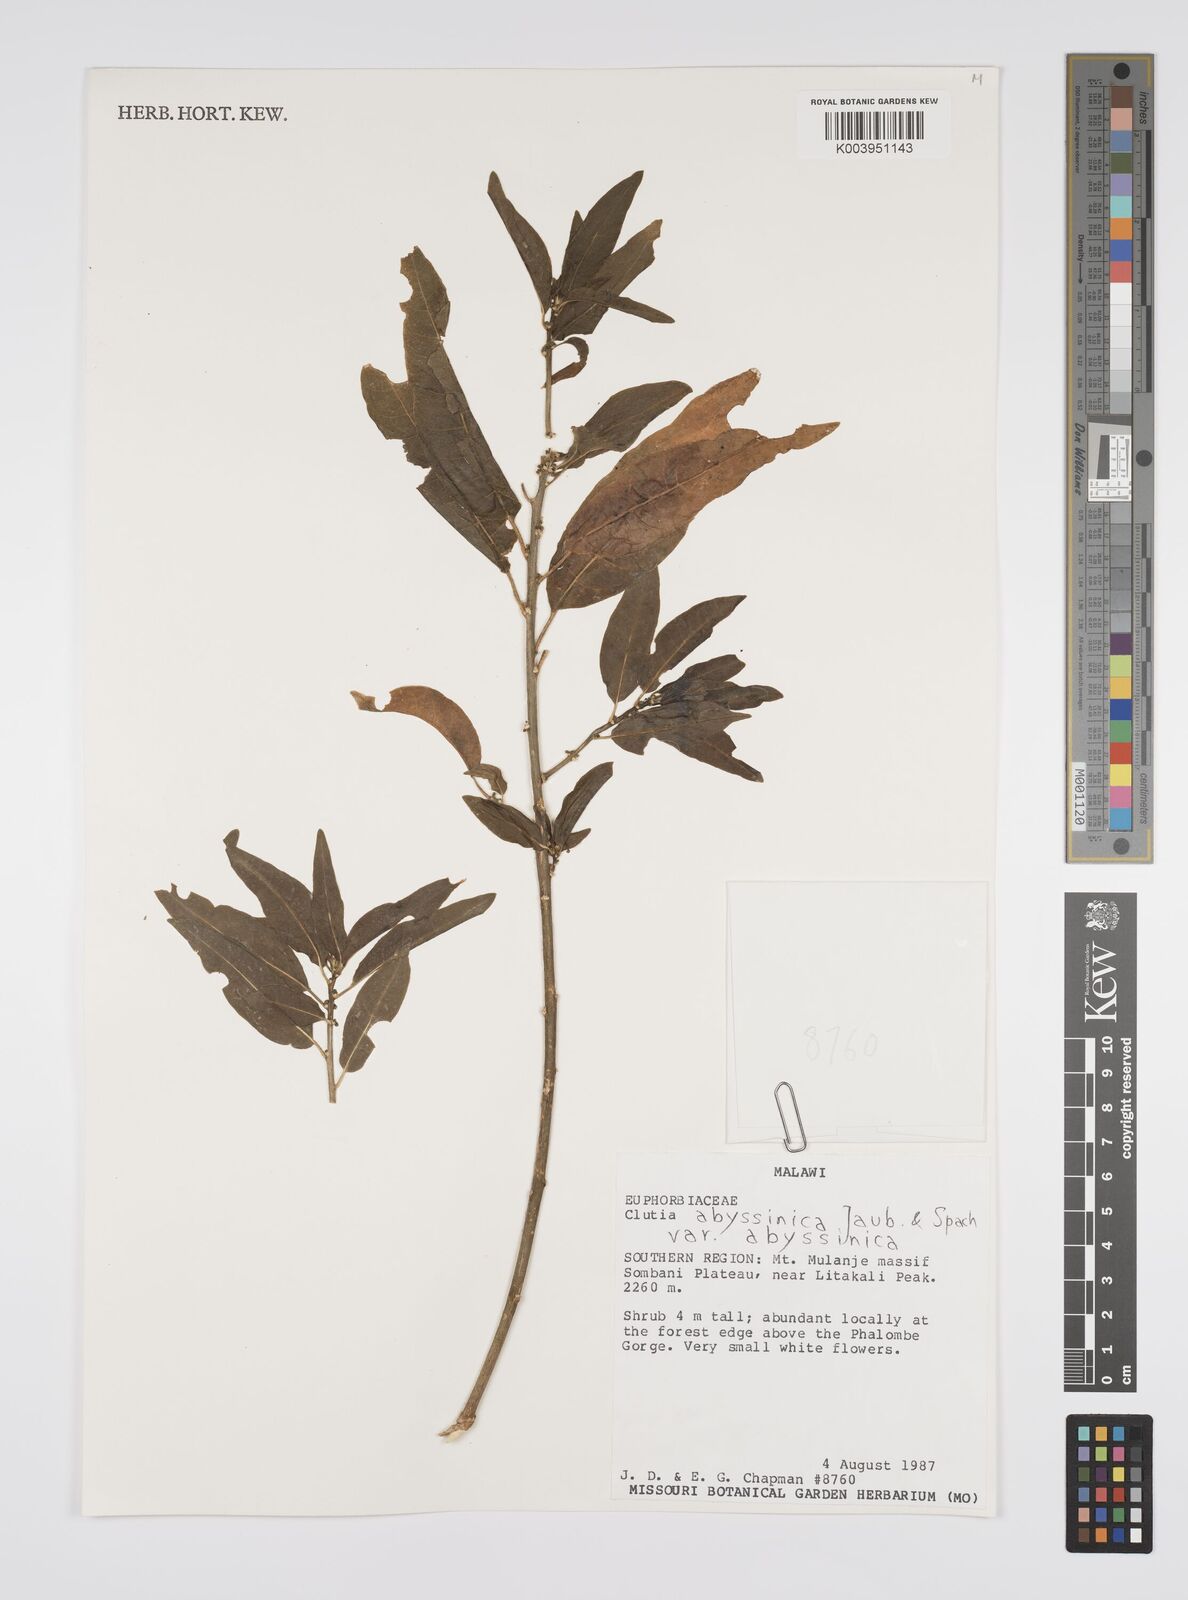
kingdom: Plantae
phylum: Tracheophyta
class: Magnoliopsida
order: Malpighiales
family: Peraceae
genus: Clutia
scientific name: Clutia abyssinica
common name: Large lightning bush
